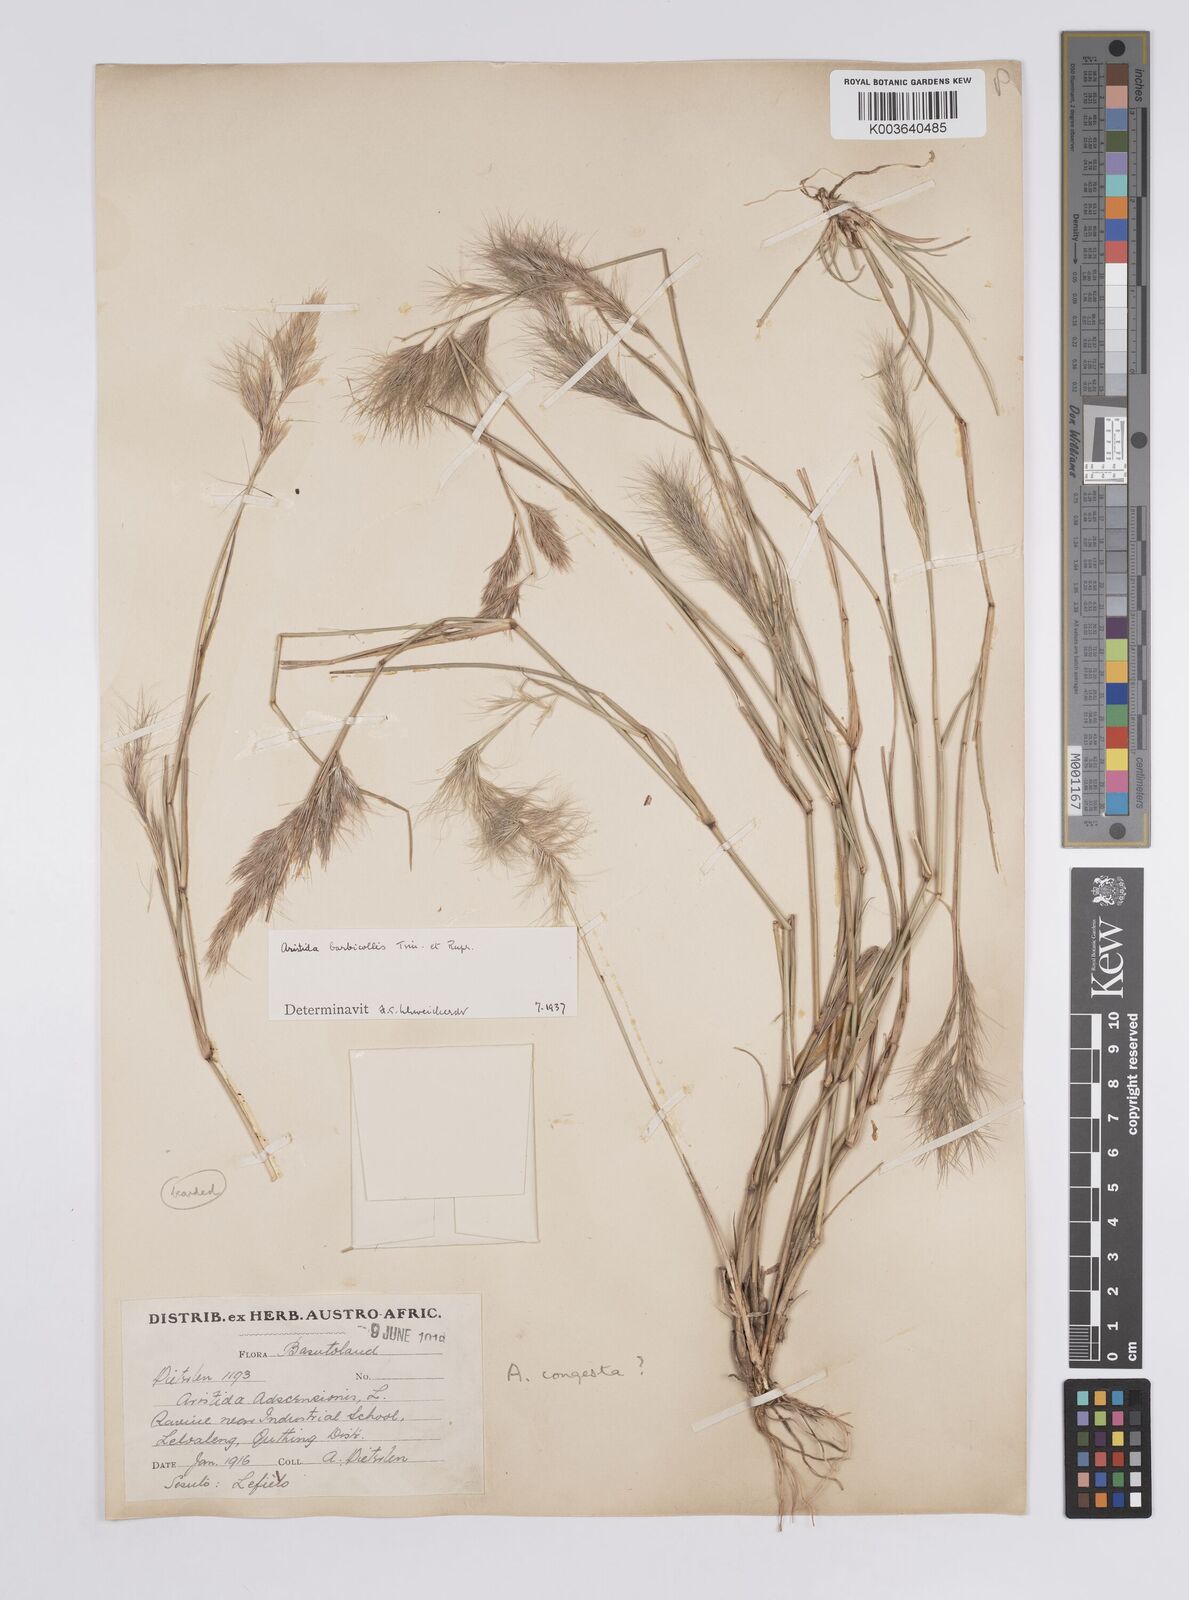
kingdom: Plantae
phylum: Tracheophyta
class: Liliopsida
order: Poales
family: Poaceae
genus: Aristida
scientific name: Aristida barbicollis
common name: Spreading prickle grass
